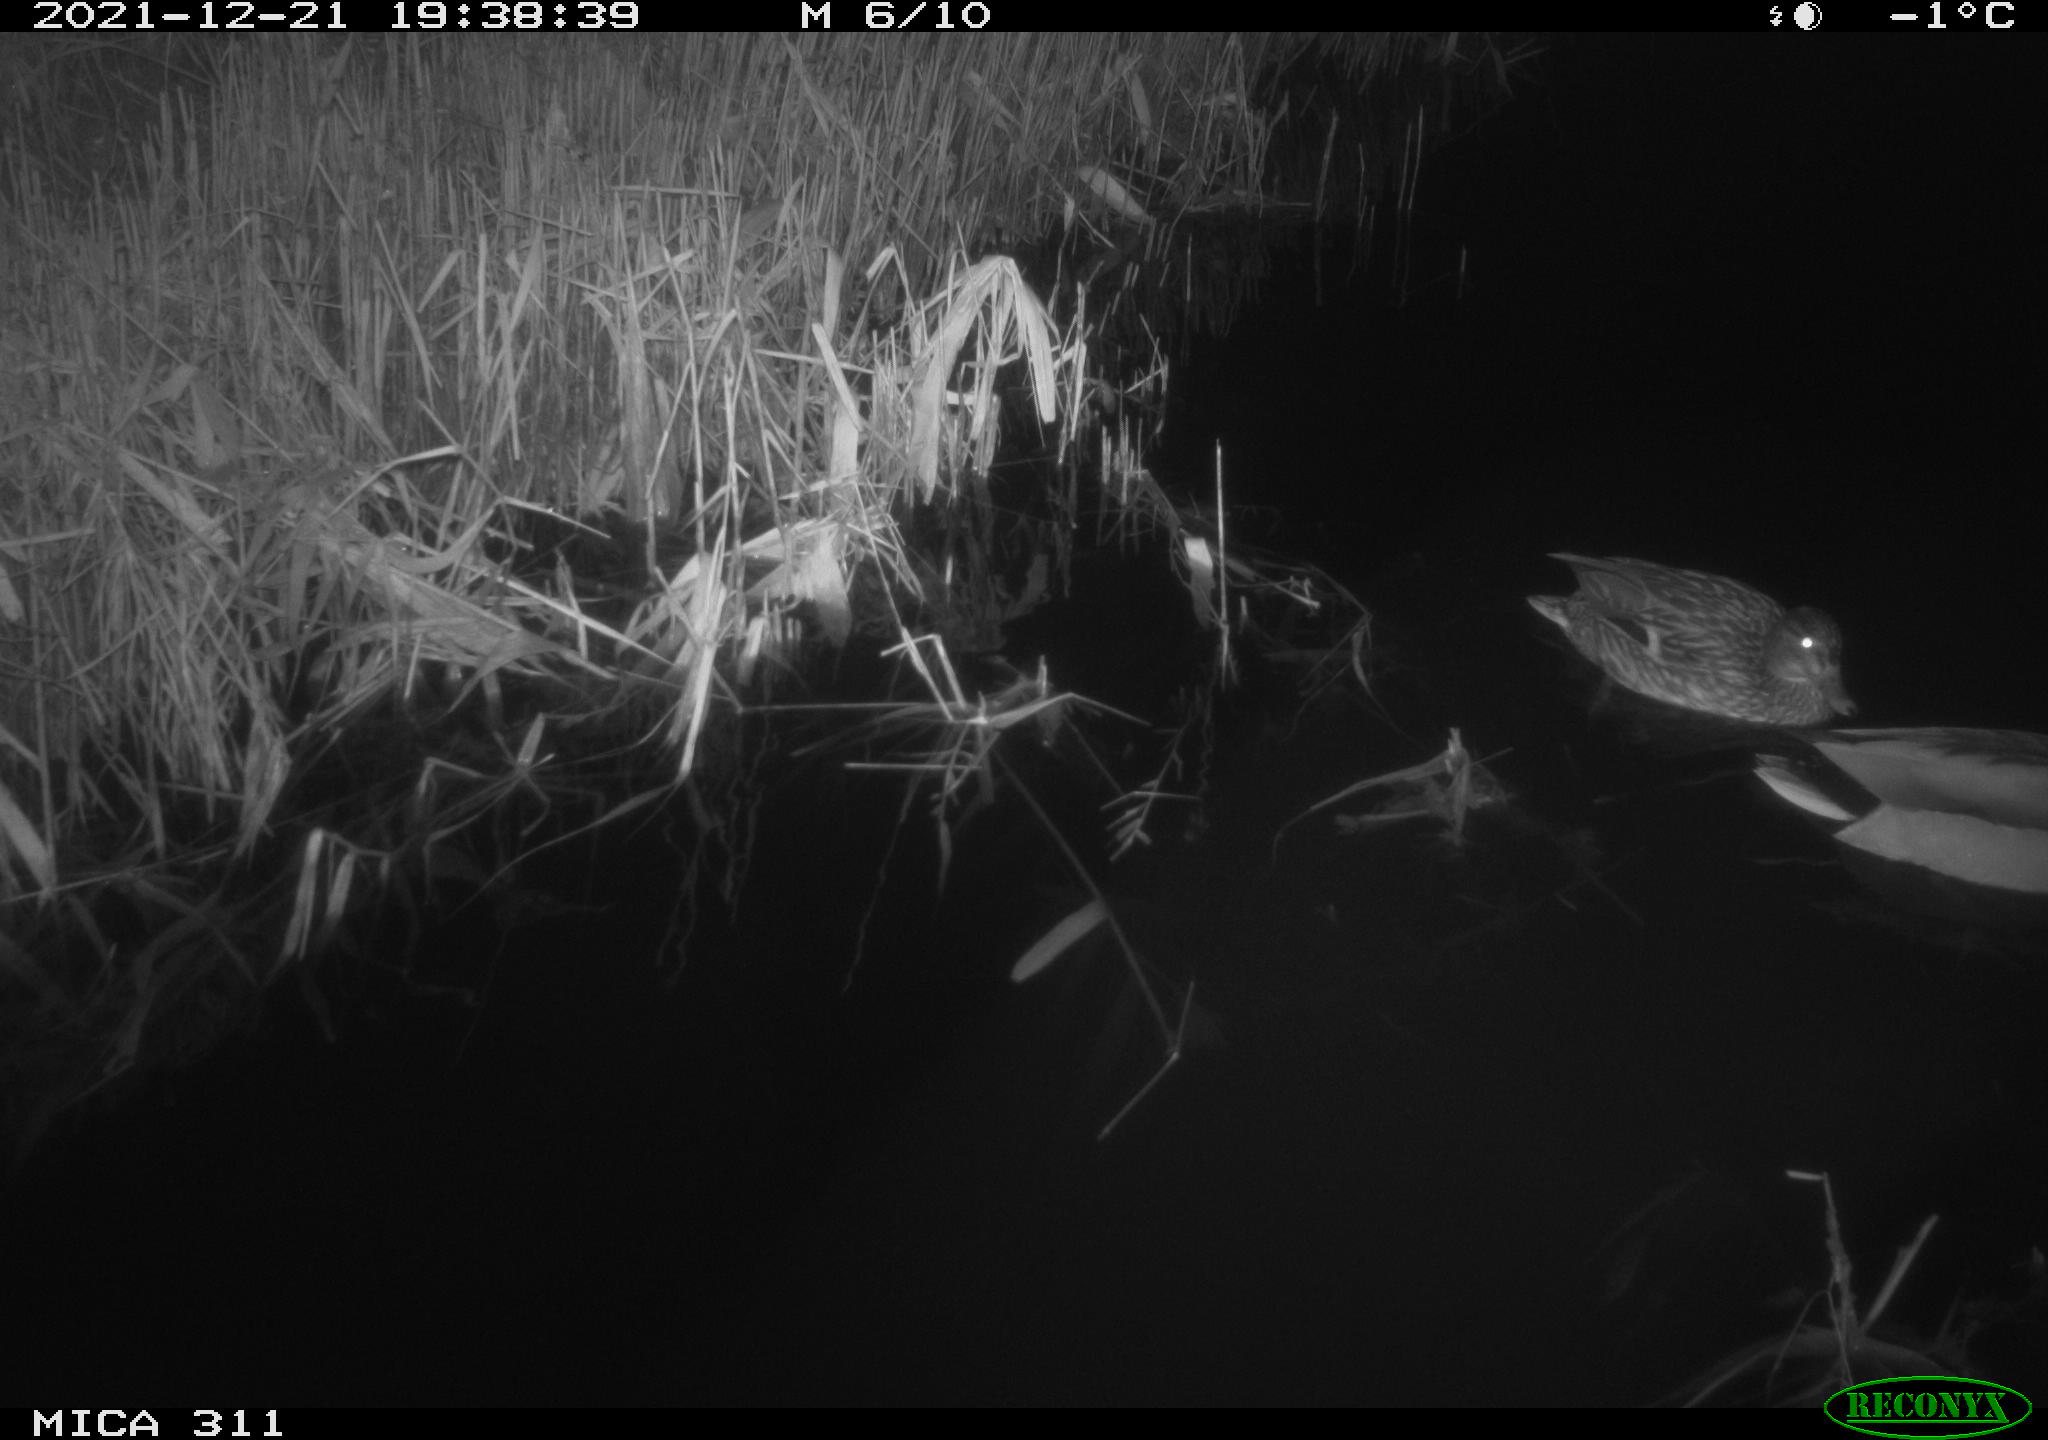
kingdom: Animalia
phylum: Chordata
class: Aves
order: Anseriformes
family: Anatidae
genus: Anas
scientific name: Anas platyrhynchos
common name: Mallard
